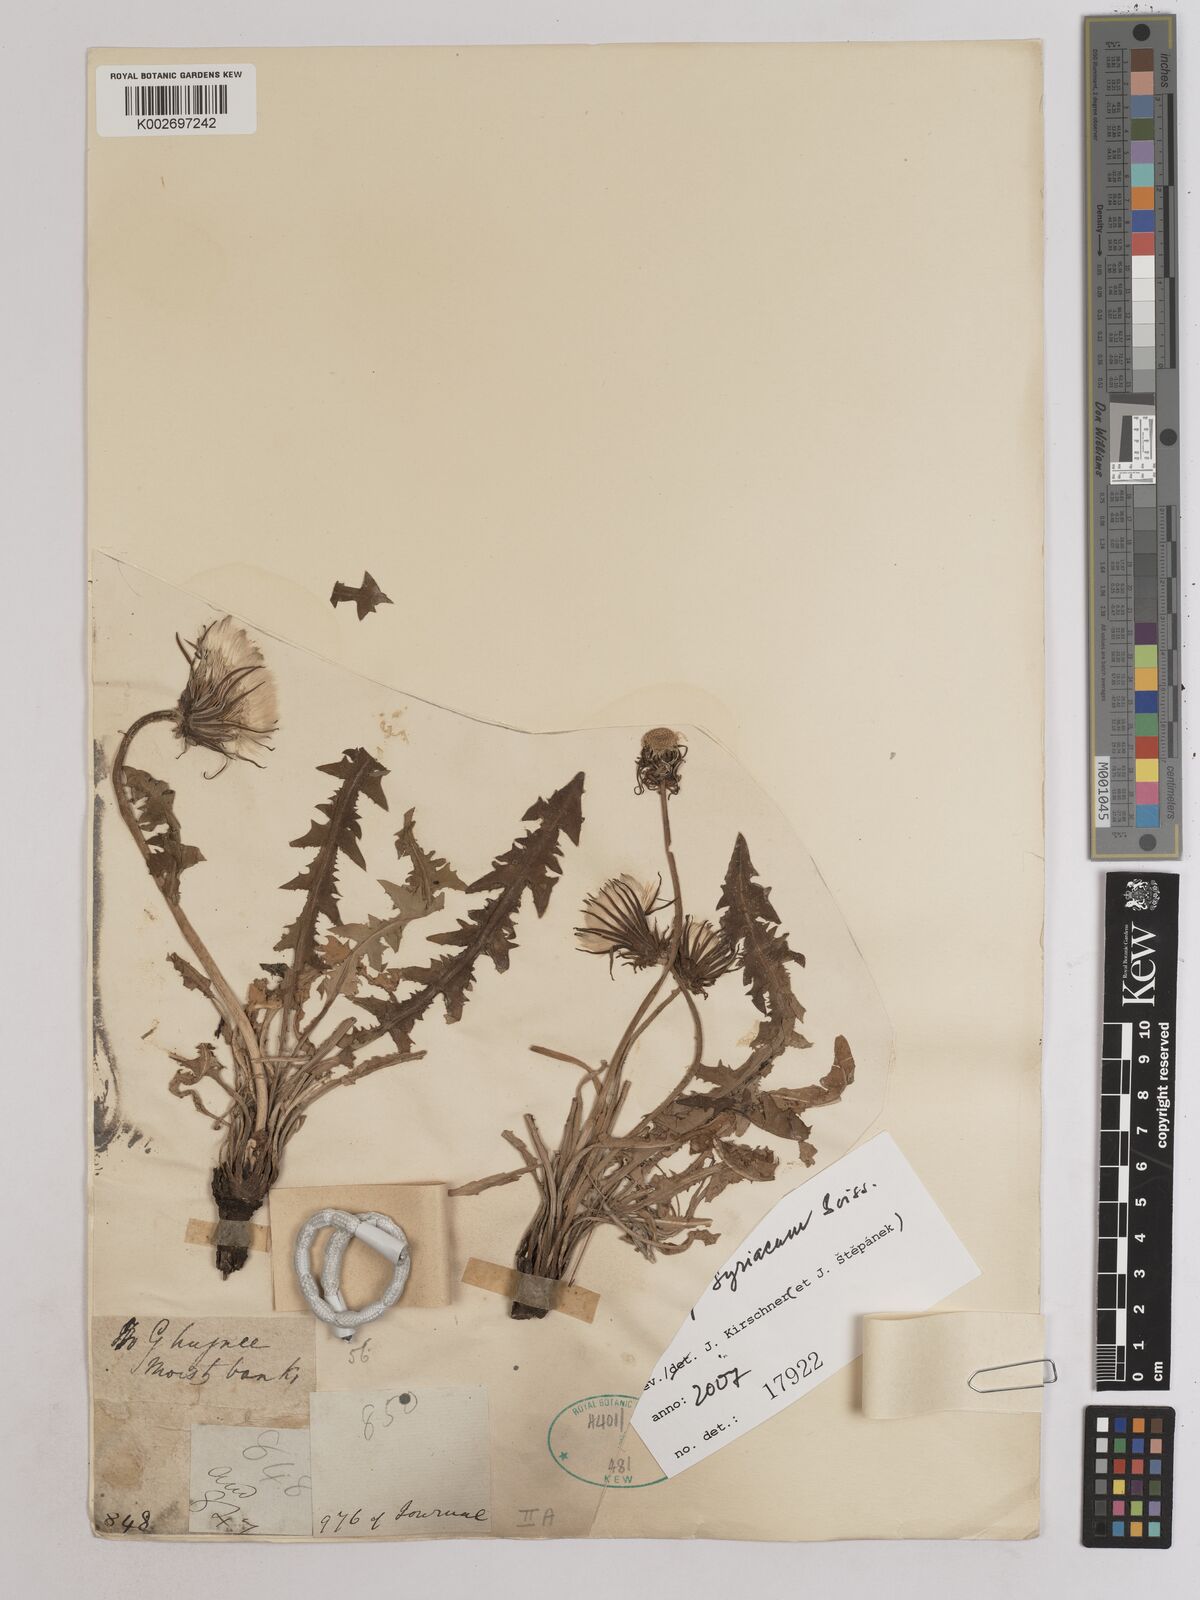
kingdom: Plantae
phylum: Tracheophyta
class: Magnoliopsida
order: Asterales
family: Asteraceae
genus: Taraxacum
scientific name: Taraxacum syriacum
